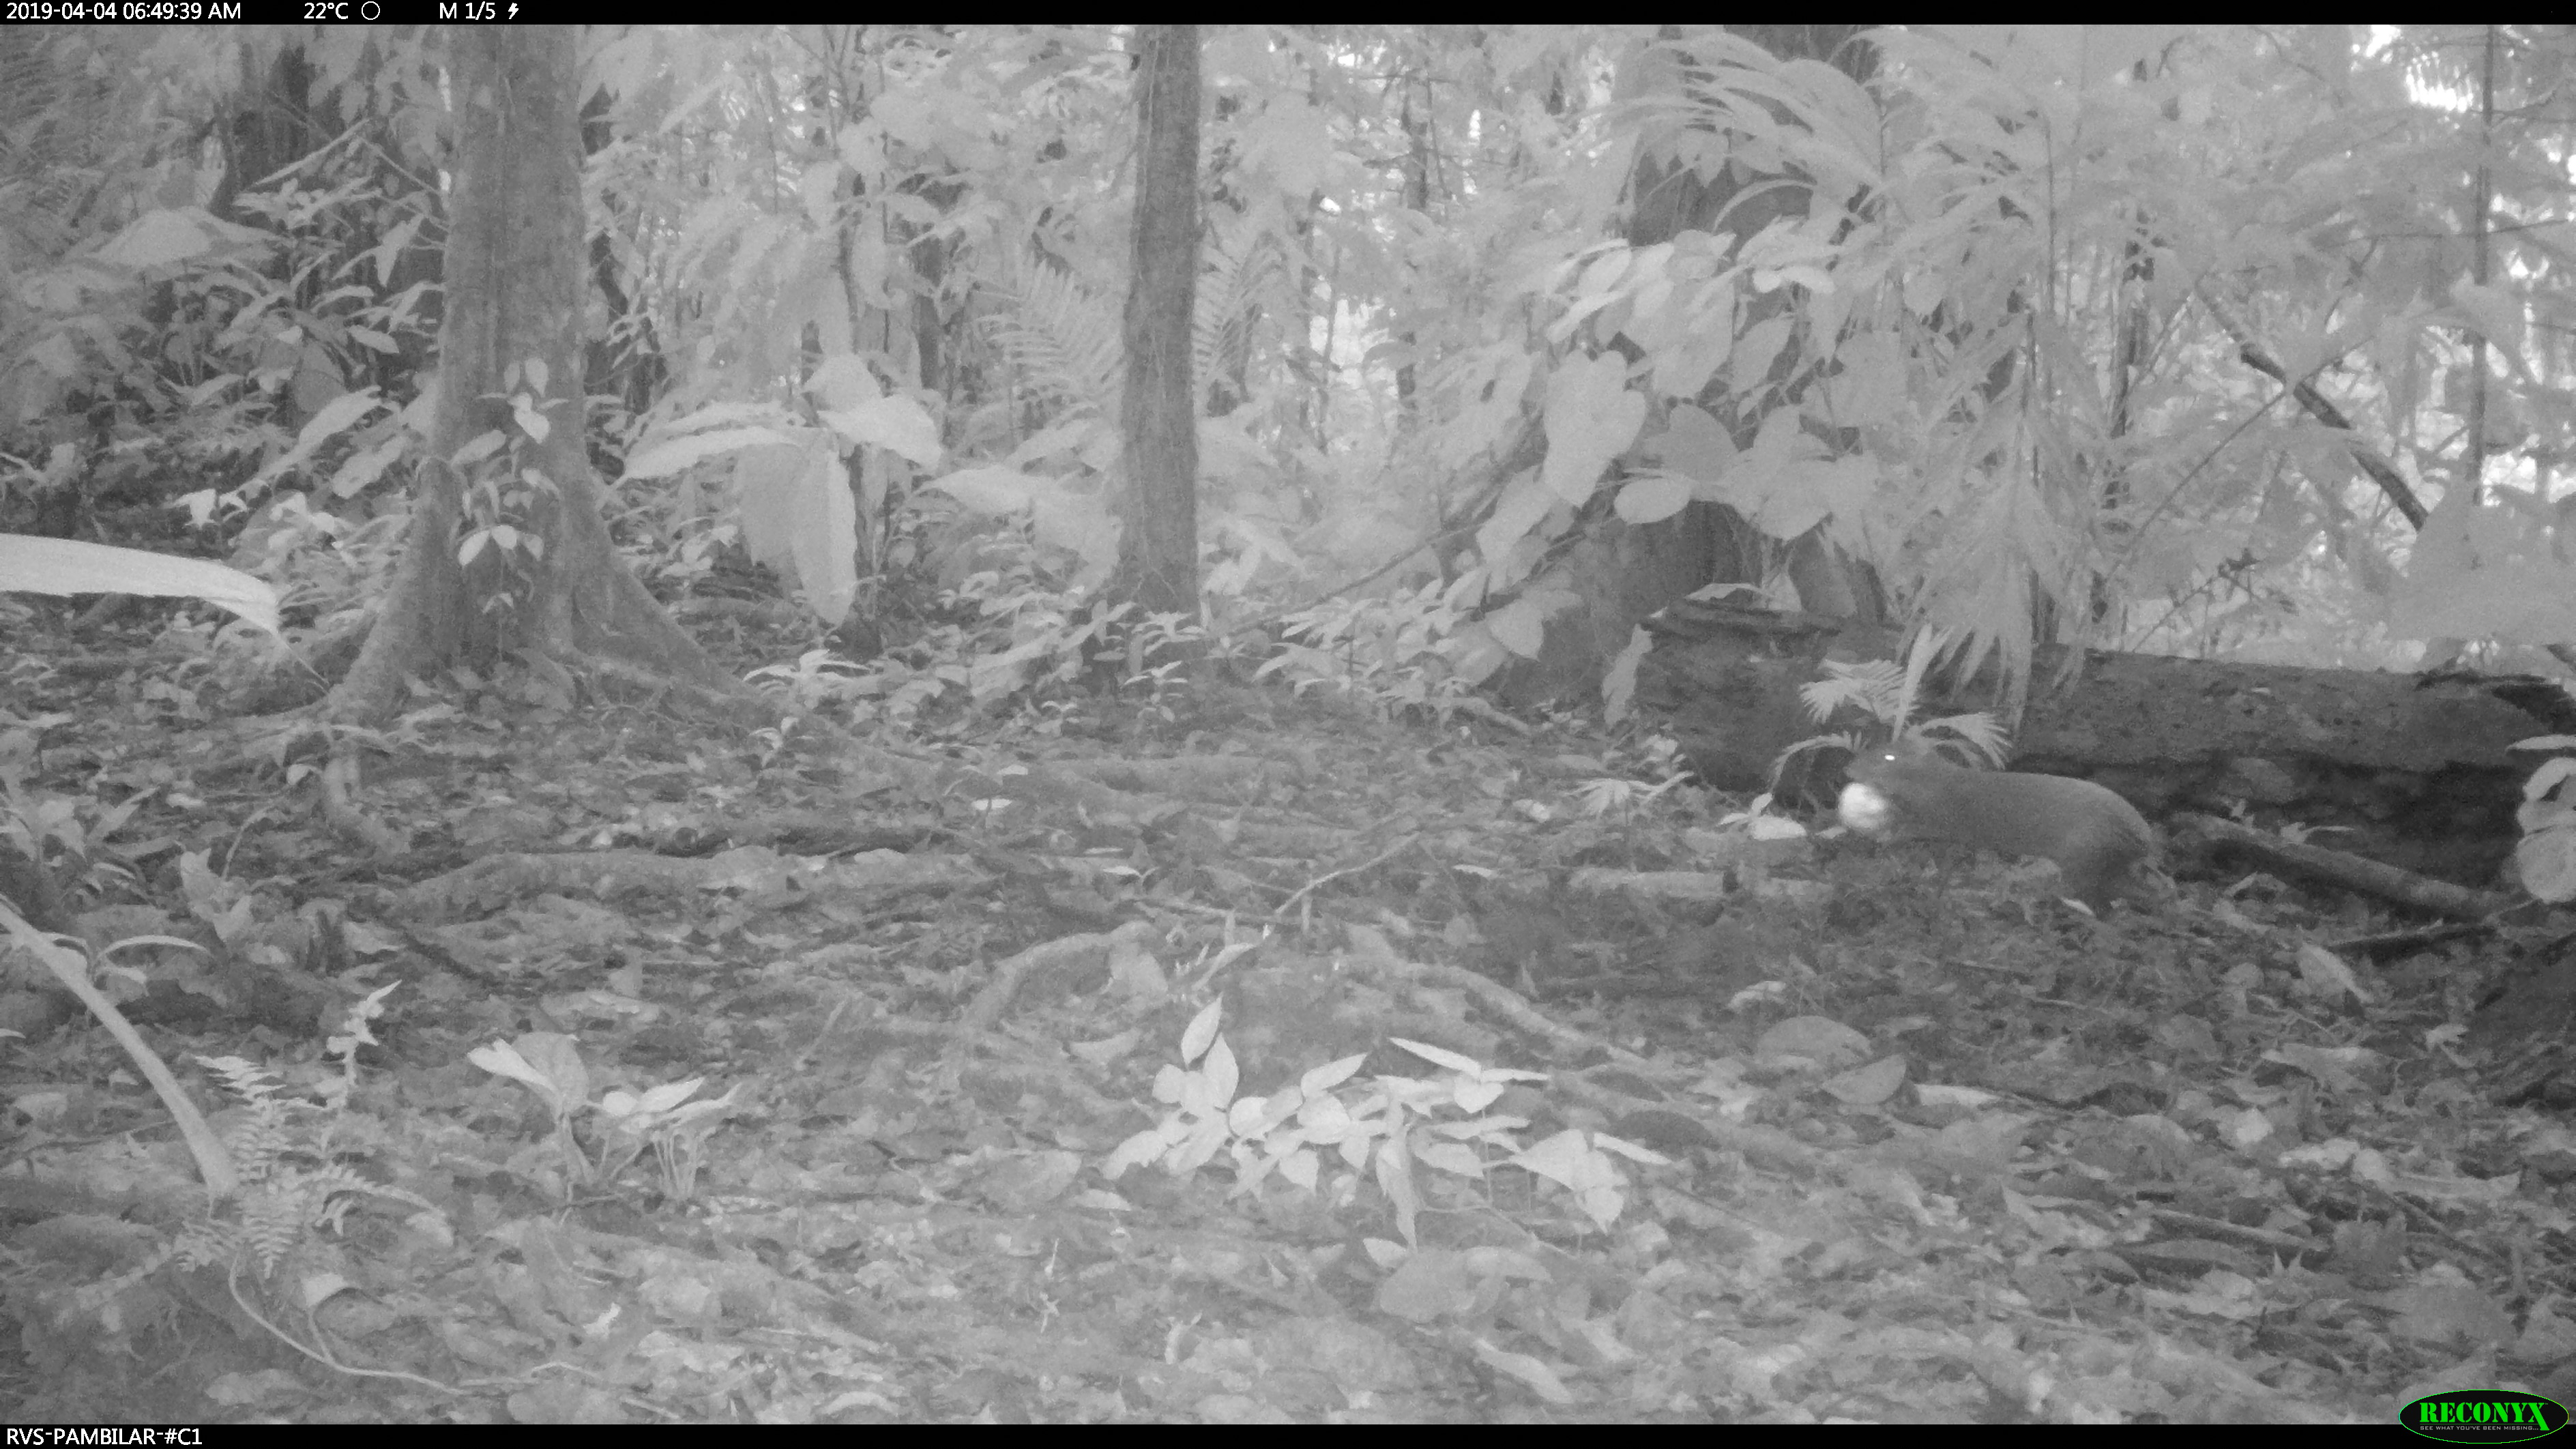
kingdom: Animalia
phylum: Chordata
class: Mammalia
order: Rodentia
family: Dasyproctidae
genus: Dasyprocta
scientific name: Dasyprocta punctata
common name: Central american agouti
